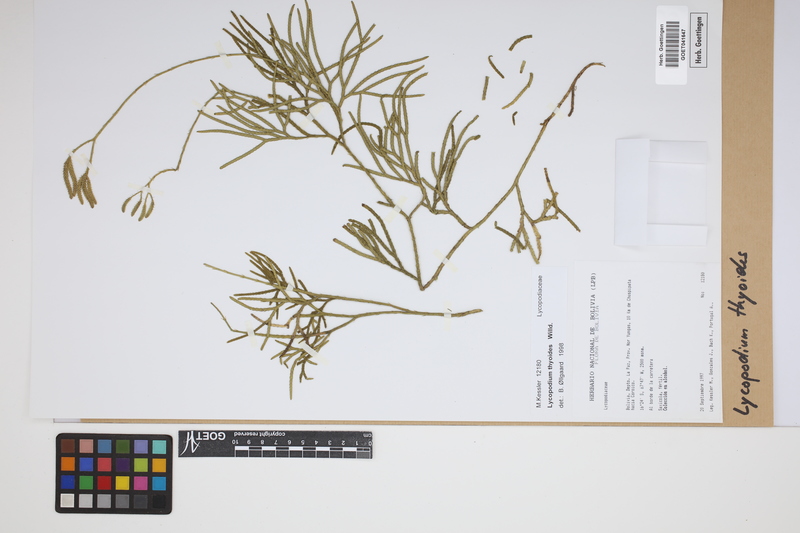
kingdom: Plantae
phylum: Tracheophyta
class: Lycopodiopsida
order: Lycopodiales
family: Lycopodiaceae
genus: Diphasiastrum
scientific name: Diphasiastrum thyoides
